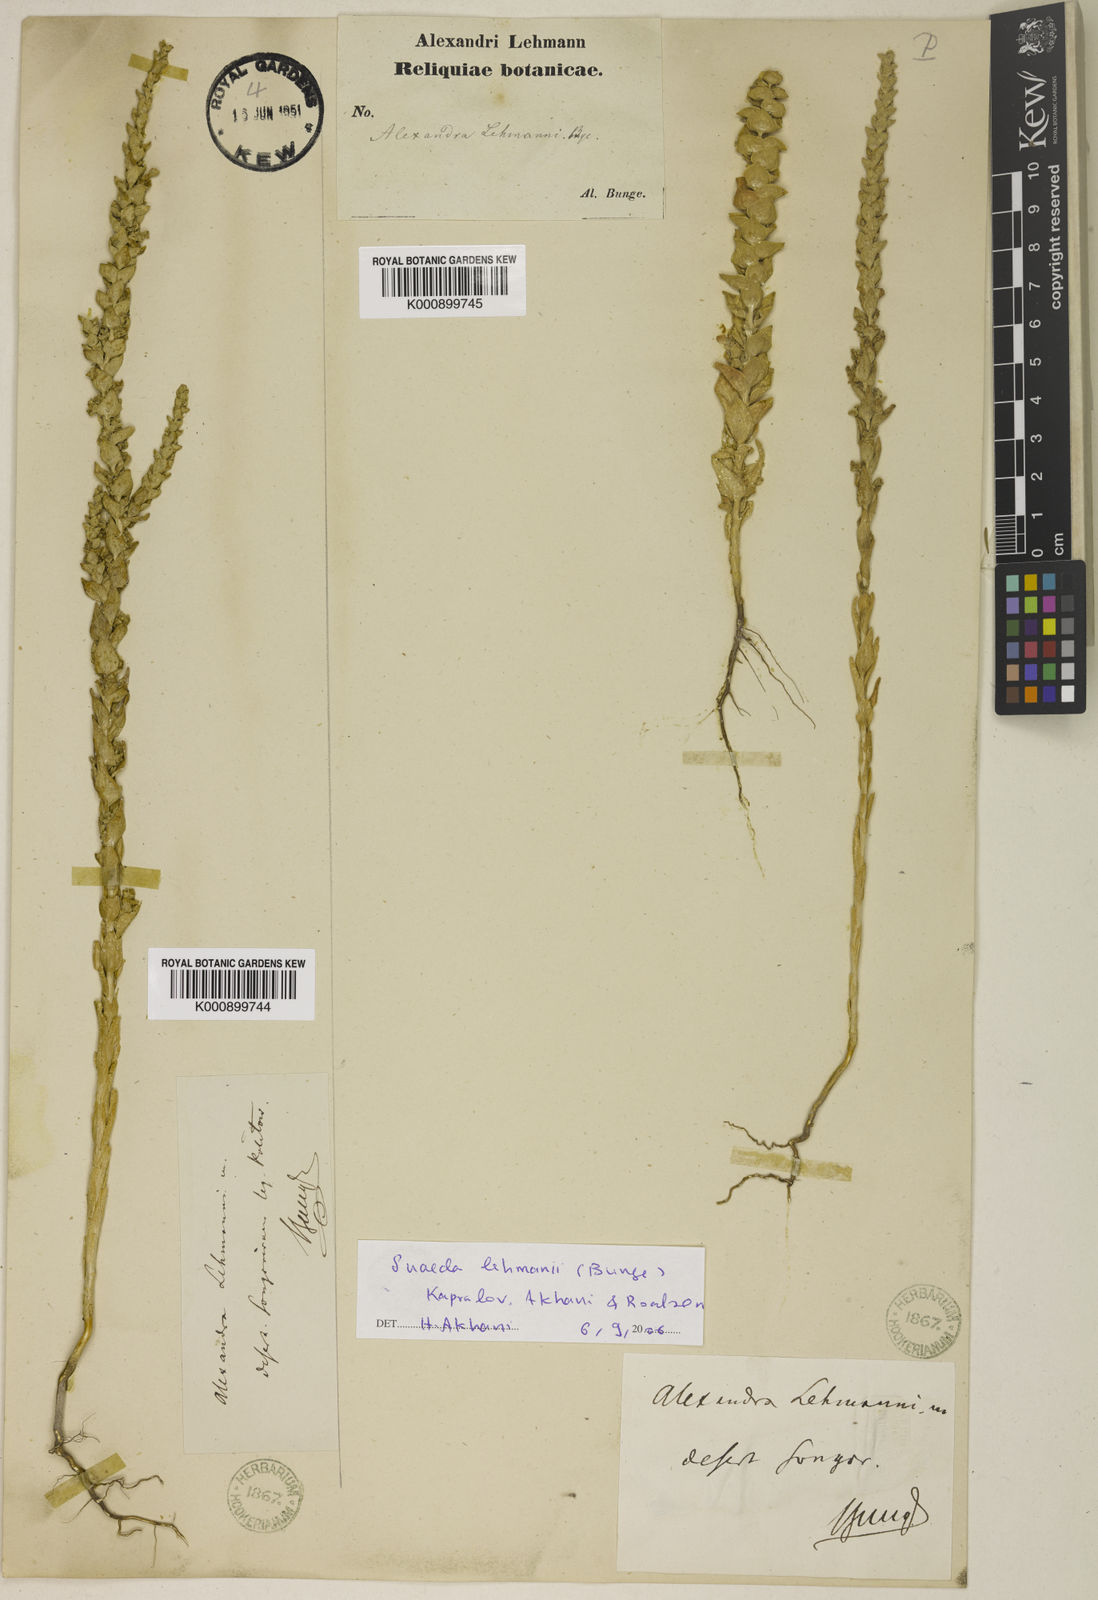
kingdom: Plantae
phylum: Tracheophyta
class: Magnoliopsida
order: Caryophyllales
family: Amaranthaceae
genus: Suaeda
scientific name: Suaeda lehmannii
